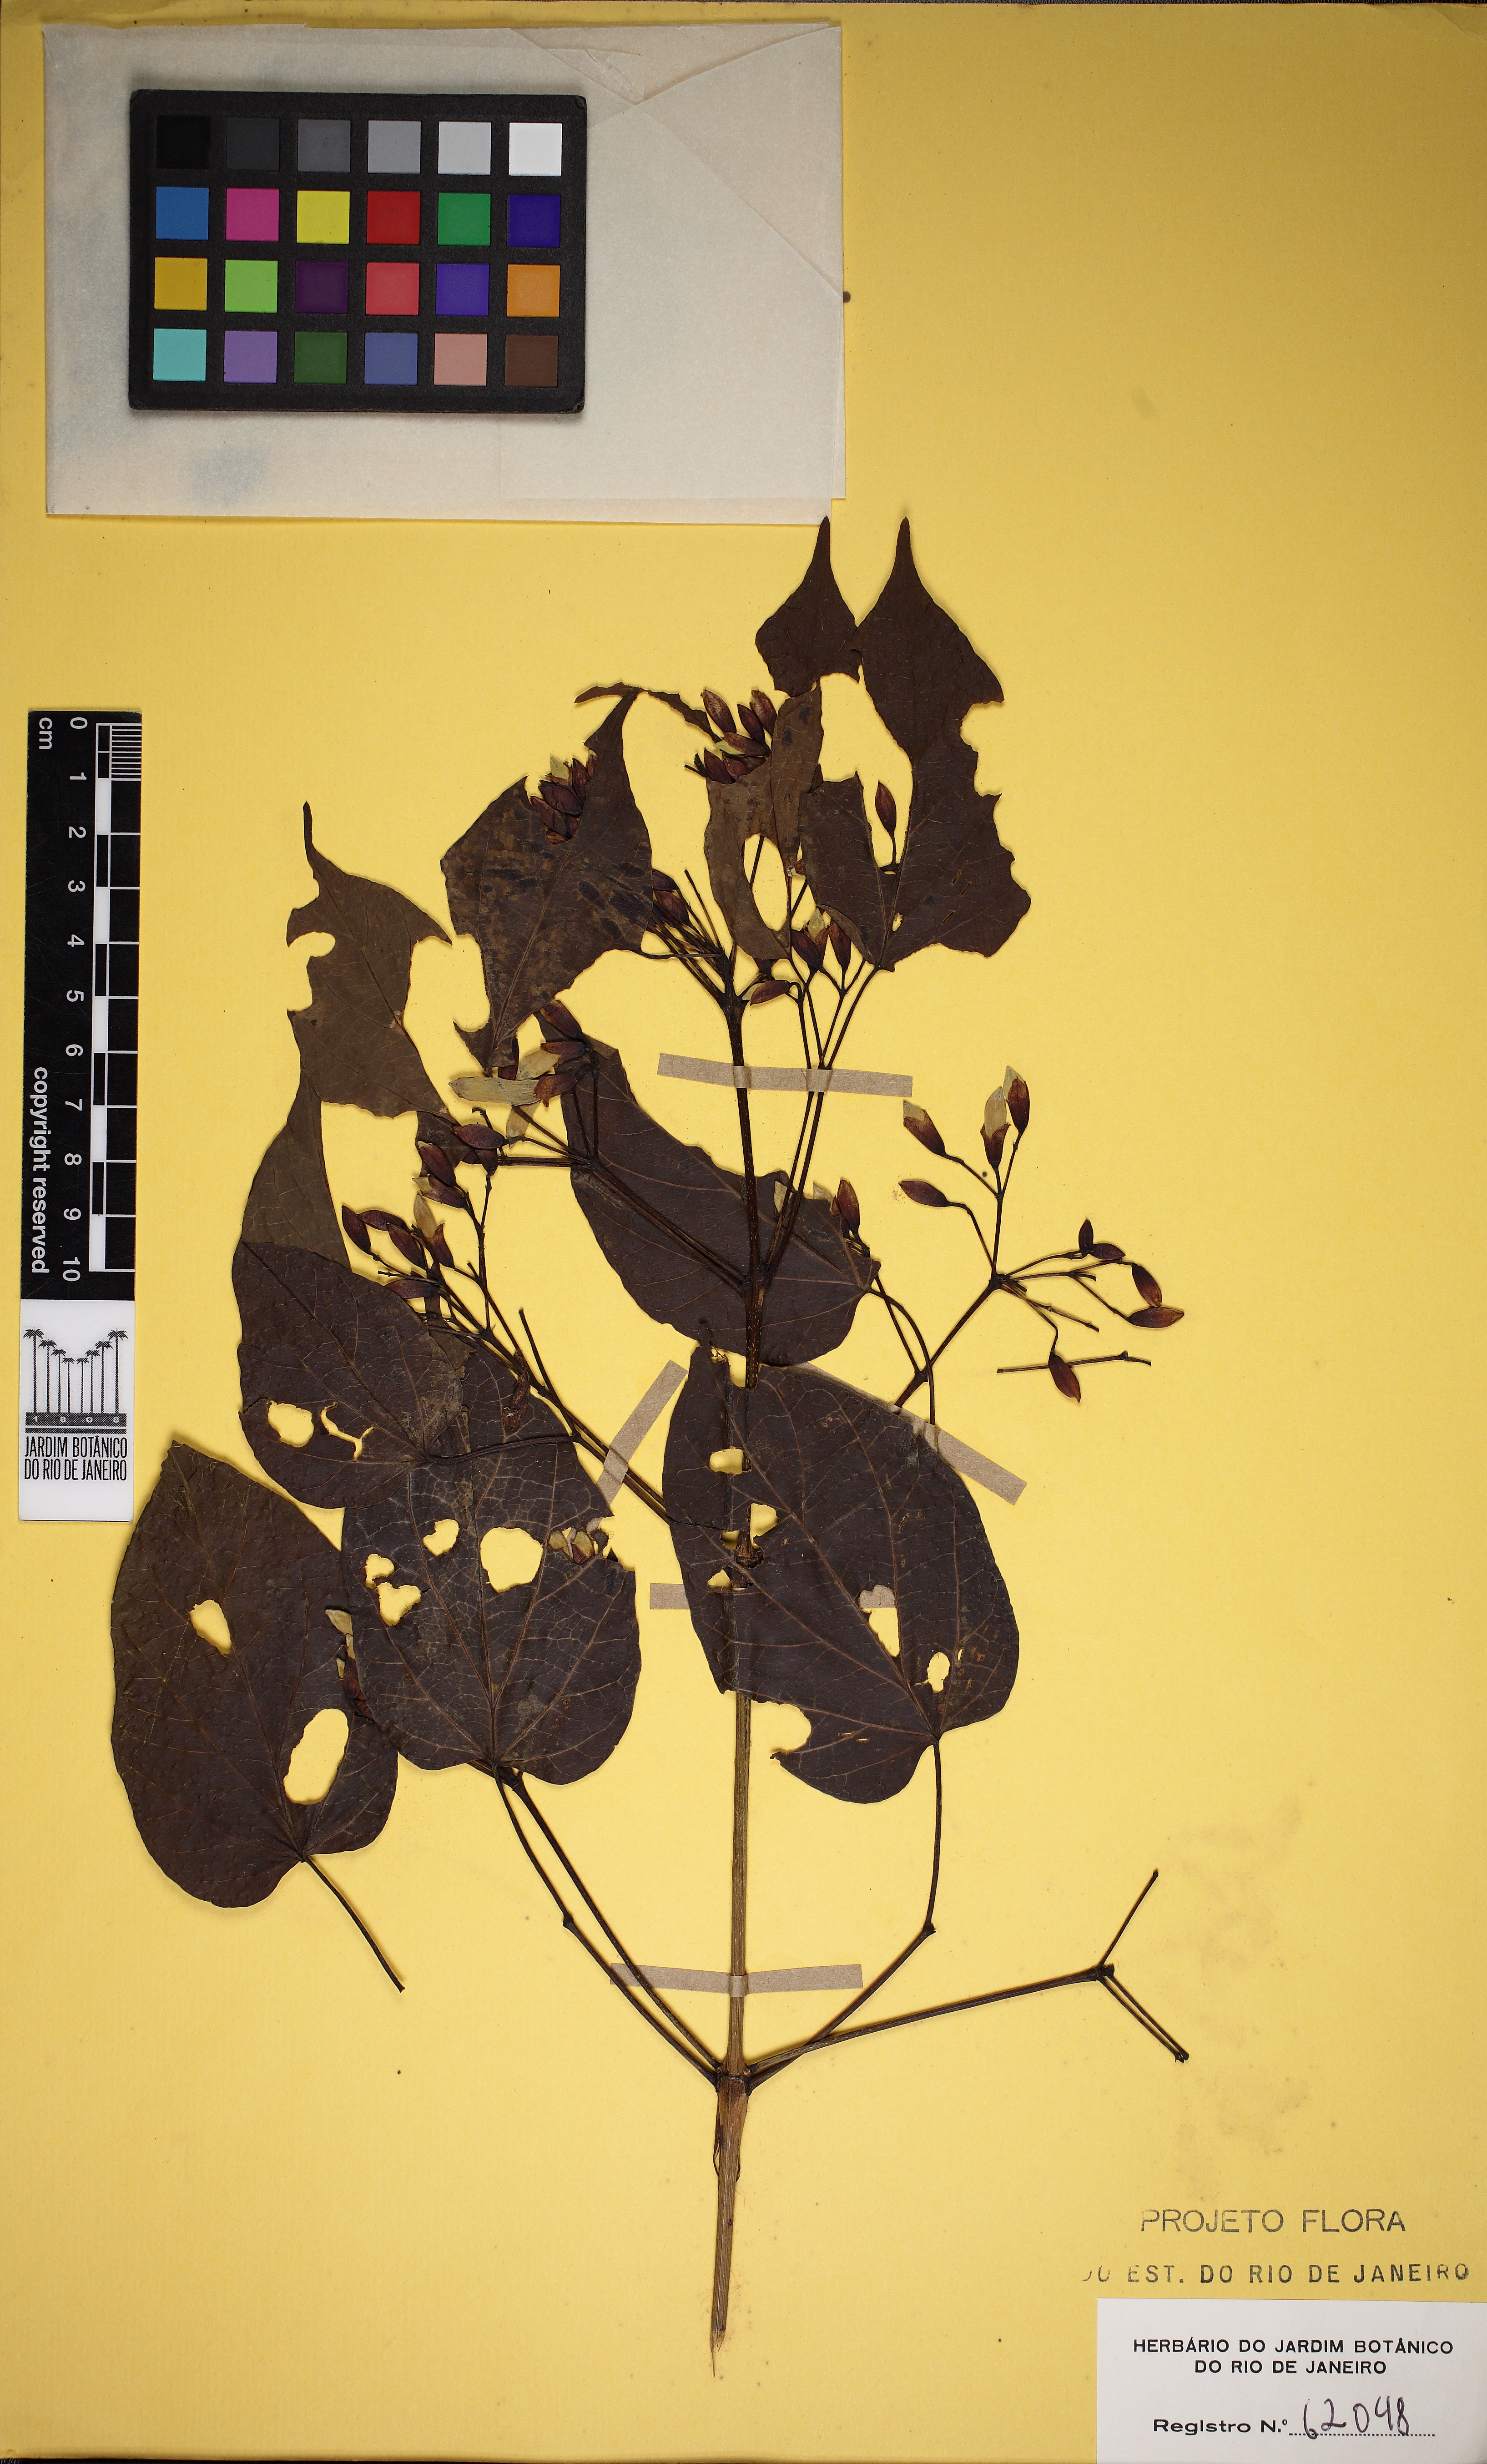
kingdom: Plantae
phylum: Tracheophyta
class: Magnoliopsida
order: Lamiales
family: Bignoniaceae
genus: Lundia
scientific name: Lundia damazioi
